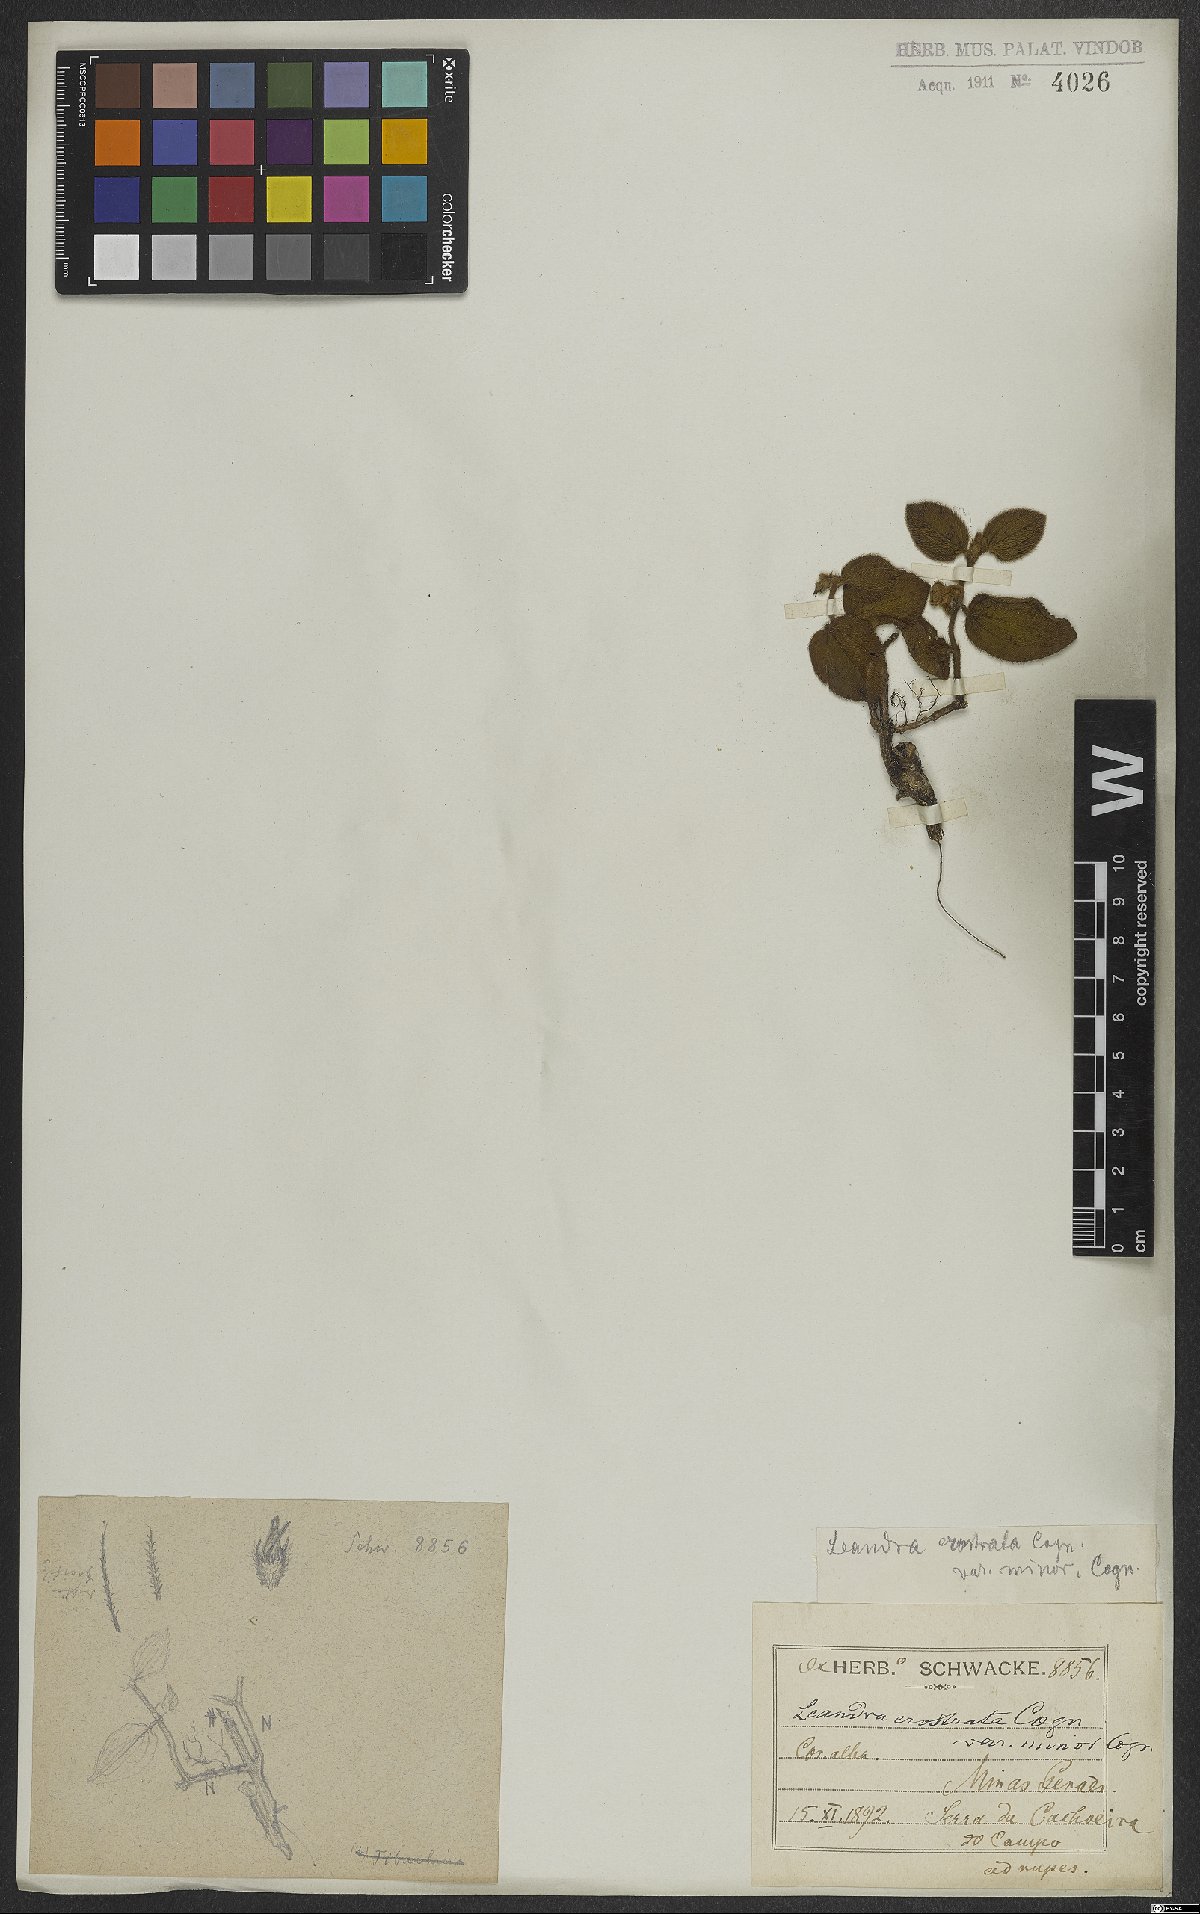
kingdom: Plantae
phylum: Tracheophyta
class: Magnoliopsida
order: Myrtales
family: Melastomataceae
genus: Miconia
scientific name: Miconia erostrata
